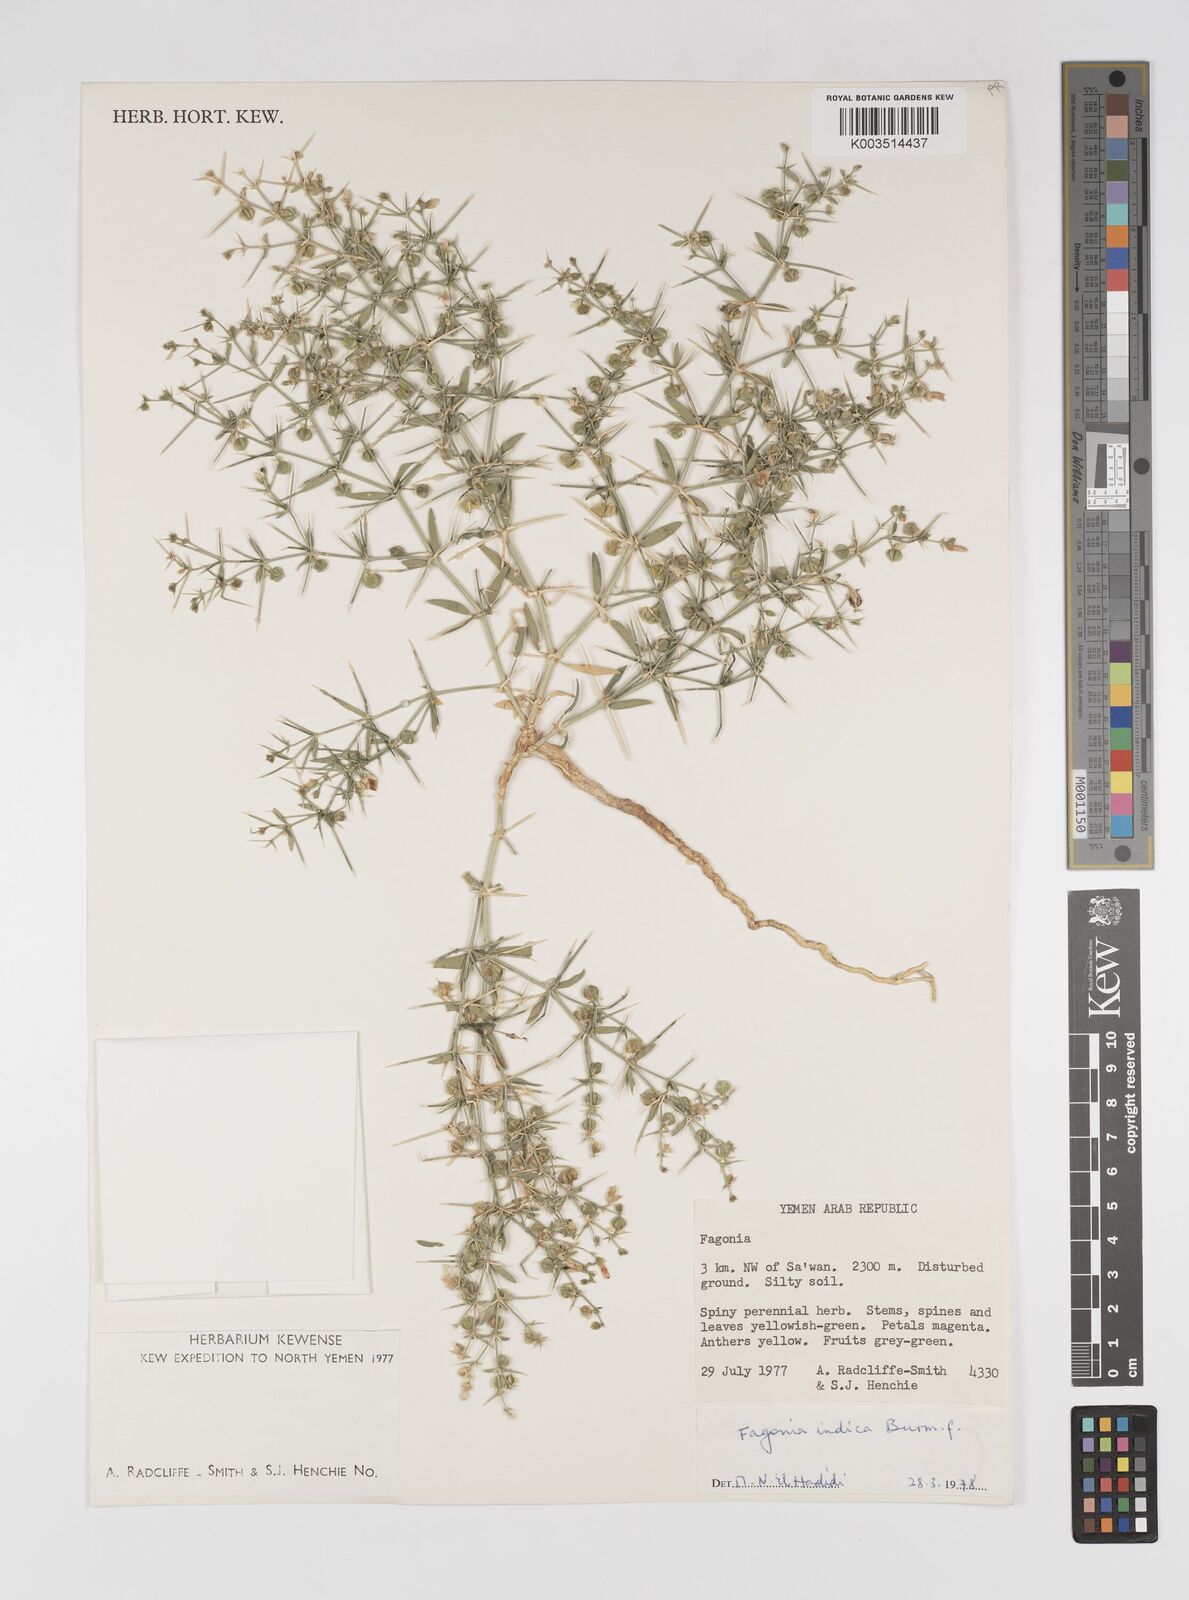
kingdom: Plantae
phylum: Tracheophyta
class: Magnoliopsida
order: Zygophyllales
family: Zygophyllaceae
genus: Fagonia
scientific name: Fagonia indica
